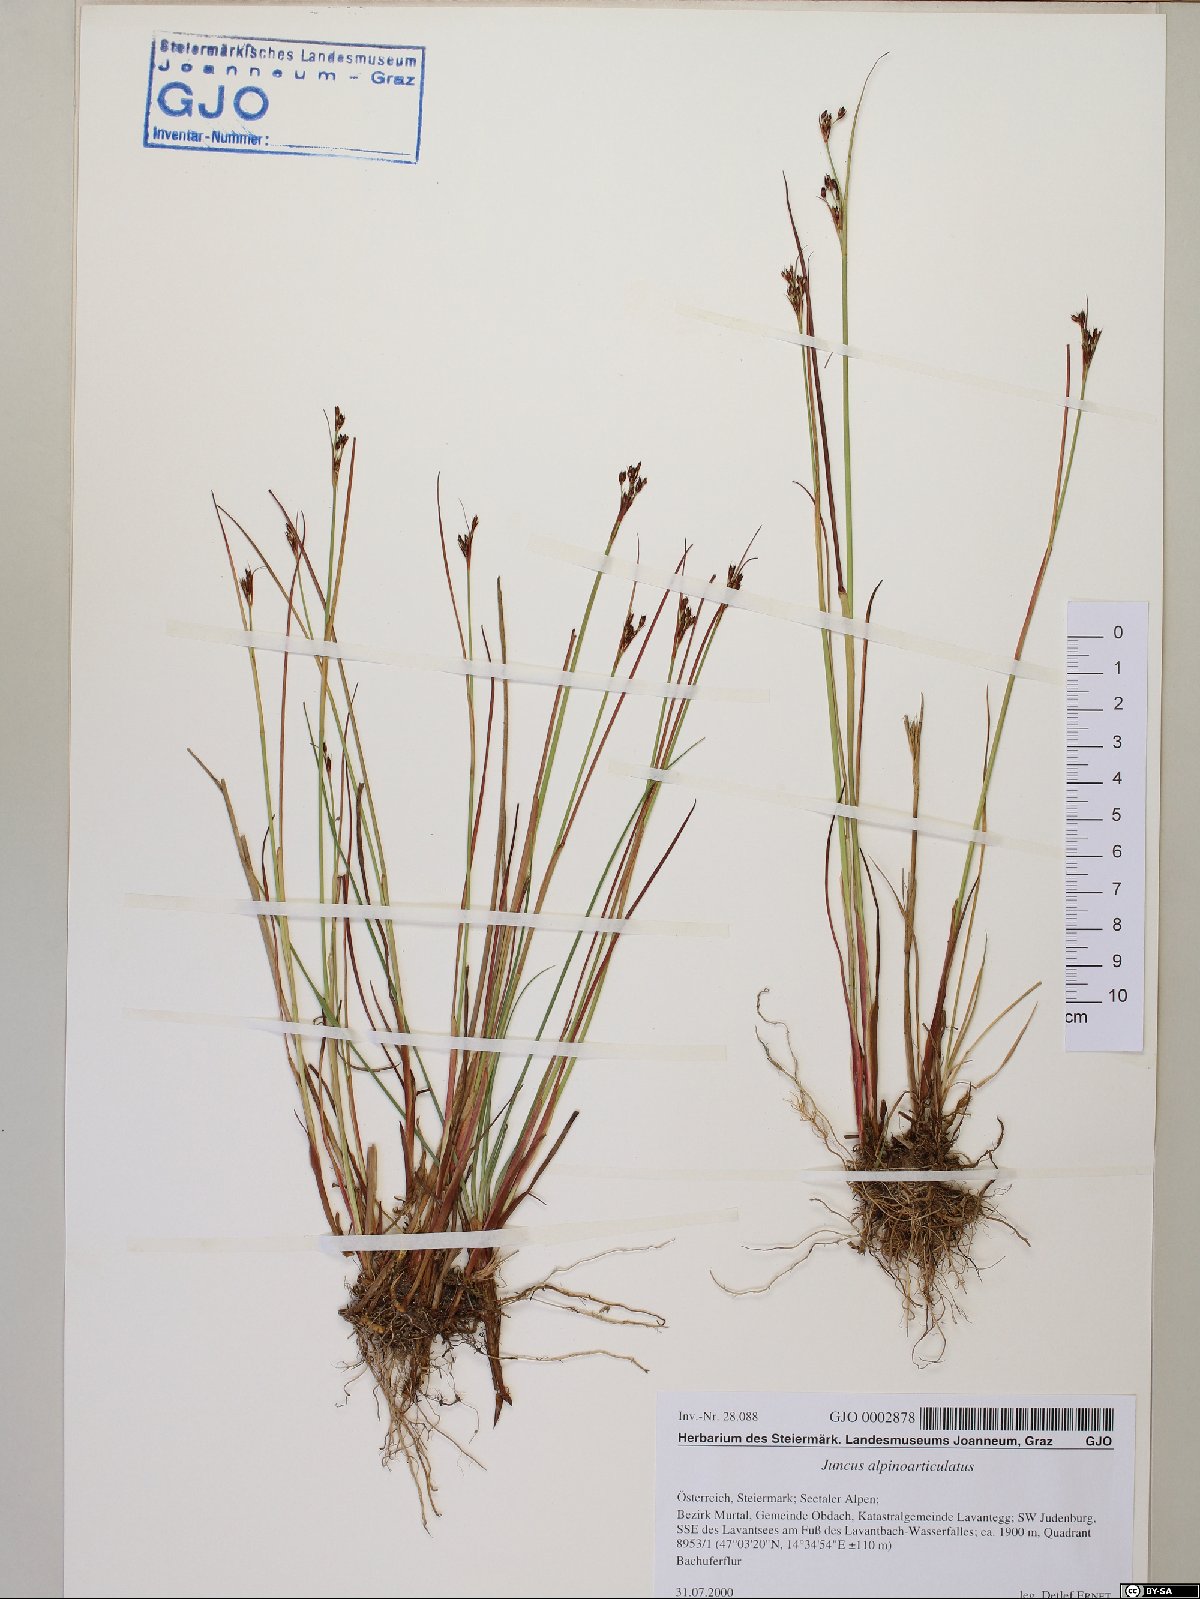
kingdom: Plantae
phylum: Tracheophyta
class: Liliopsida
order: Poales
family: Juncaceae
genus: Juncus
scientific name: Juncus alpinoarticulatus
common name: Alpine rush
